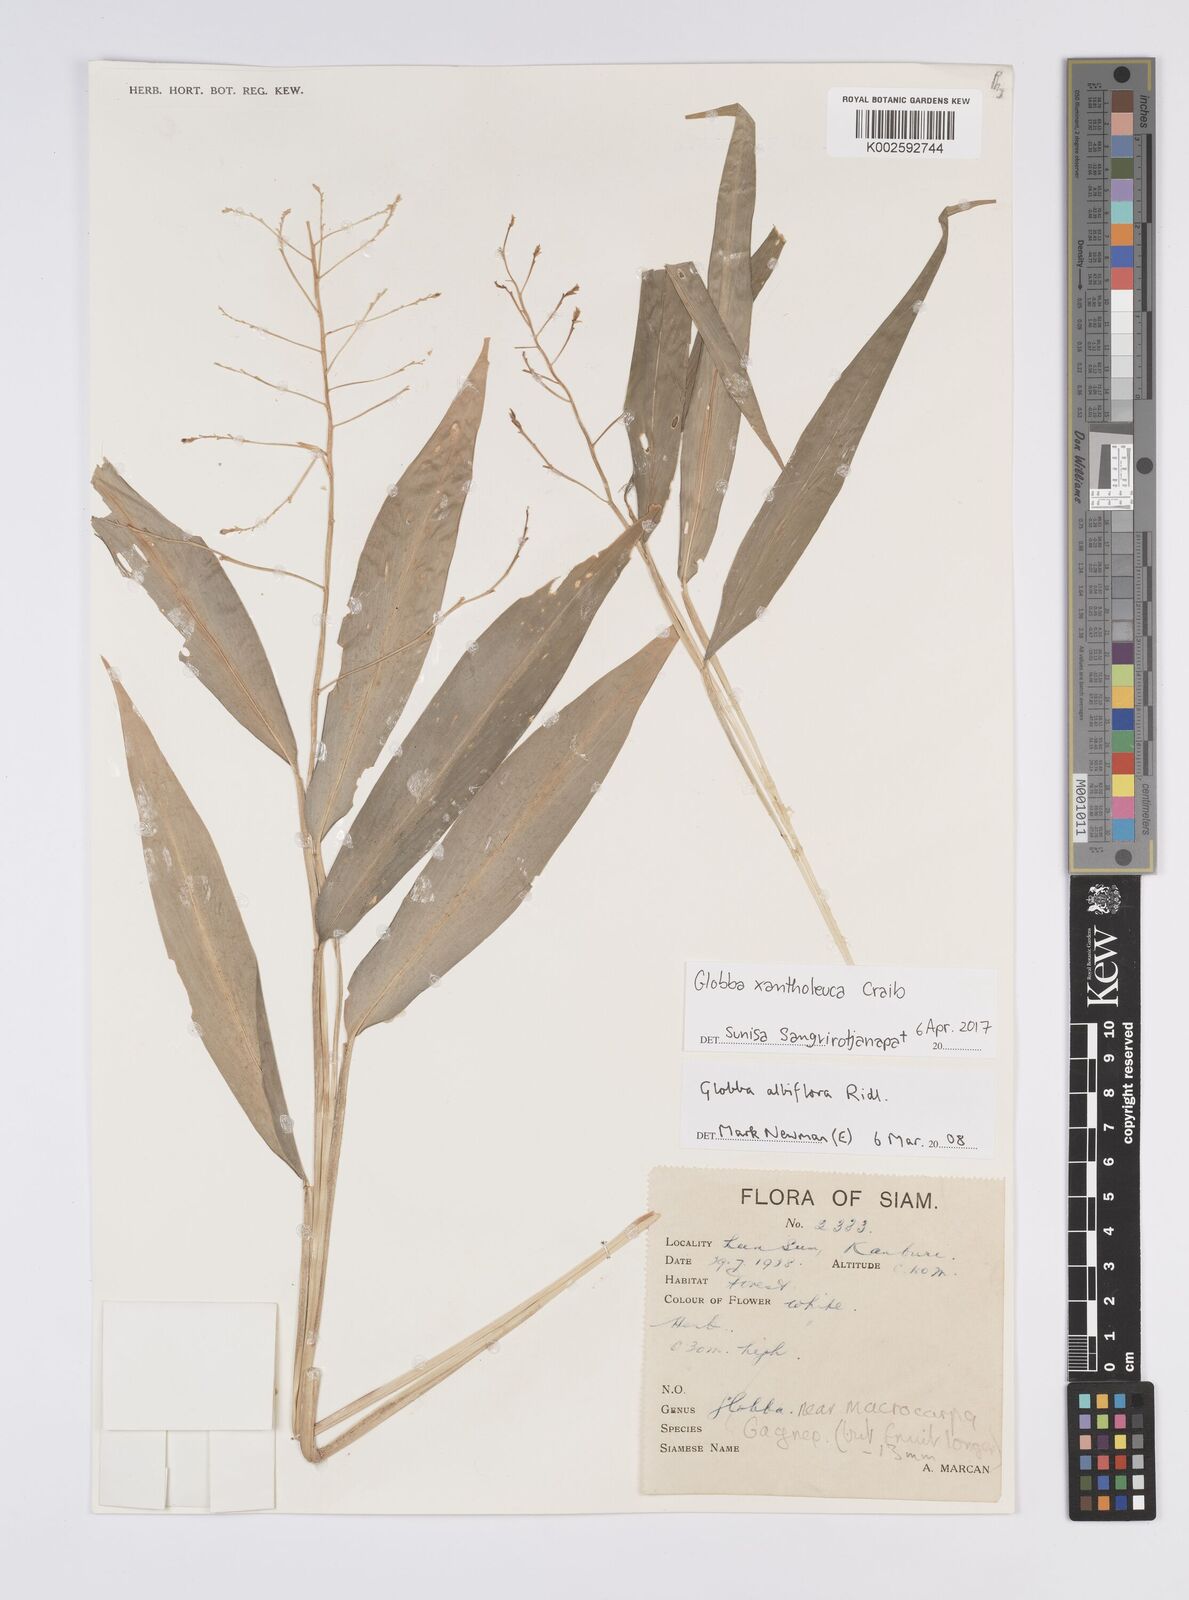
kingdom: Plantae
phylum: Tracheophyta
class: Liliopsida
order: Zingiberales
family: Zingiberaceae
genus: Globba
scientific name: Globba xantholeuca
